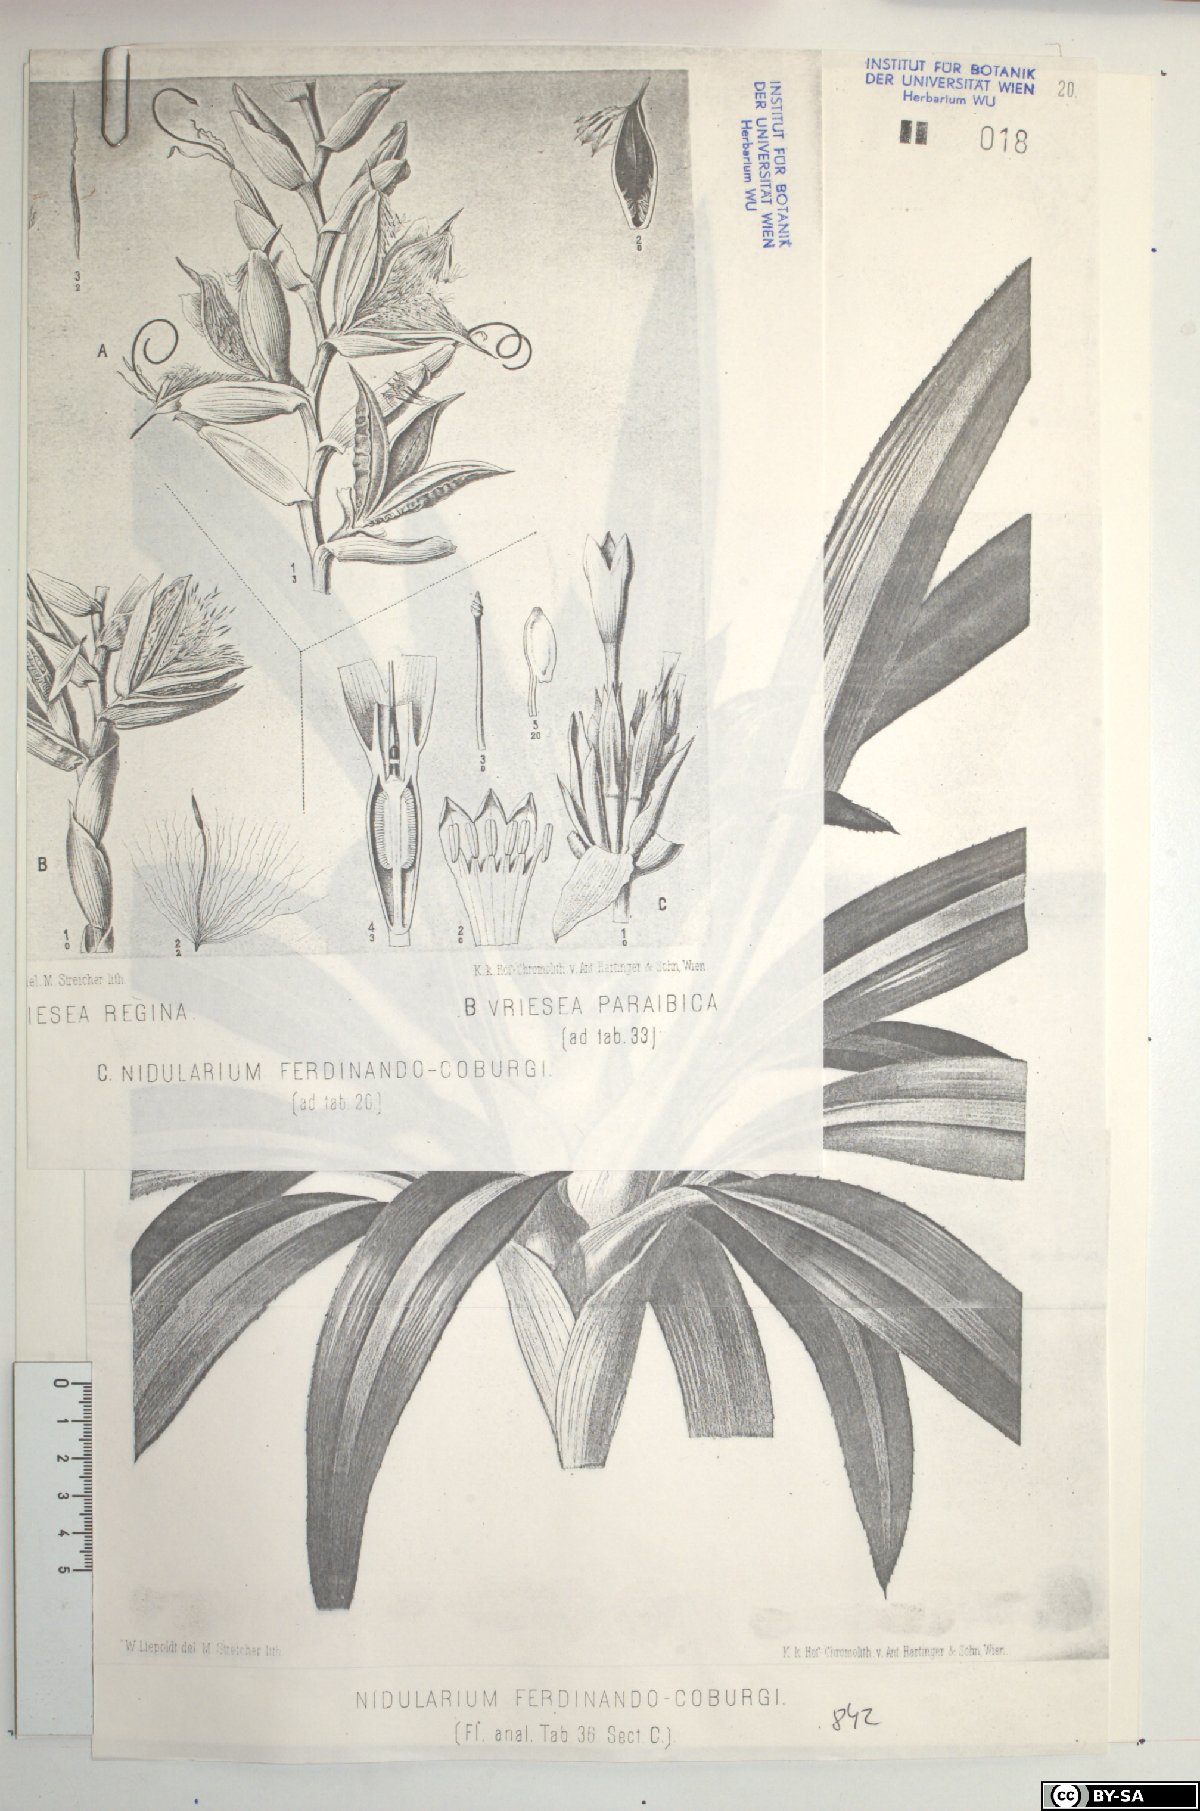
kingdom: Plantae
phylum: Tracheophyta
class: Liliopsida
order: Poales
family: Bromeliaceae
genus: Nidularium
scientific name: Nidularium ferdinando-coburgii
